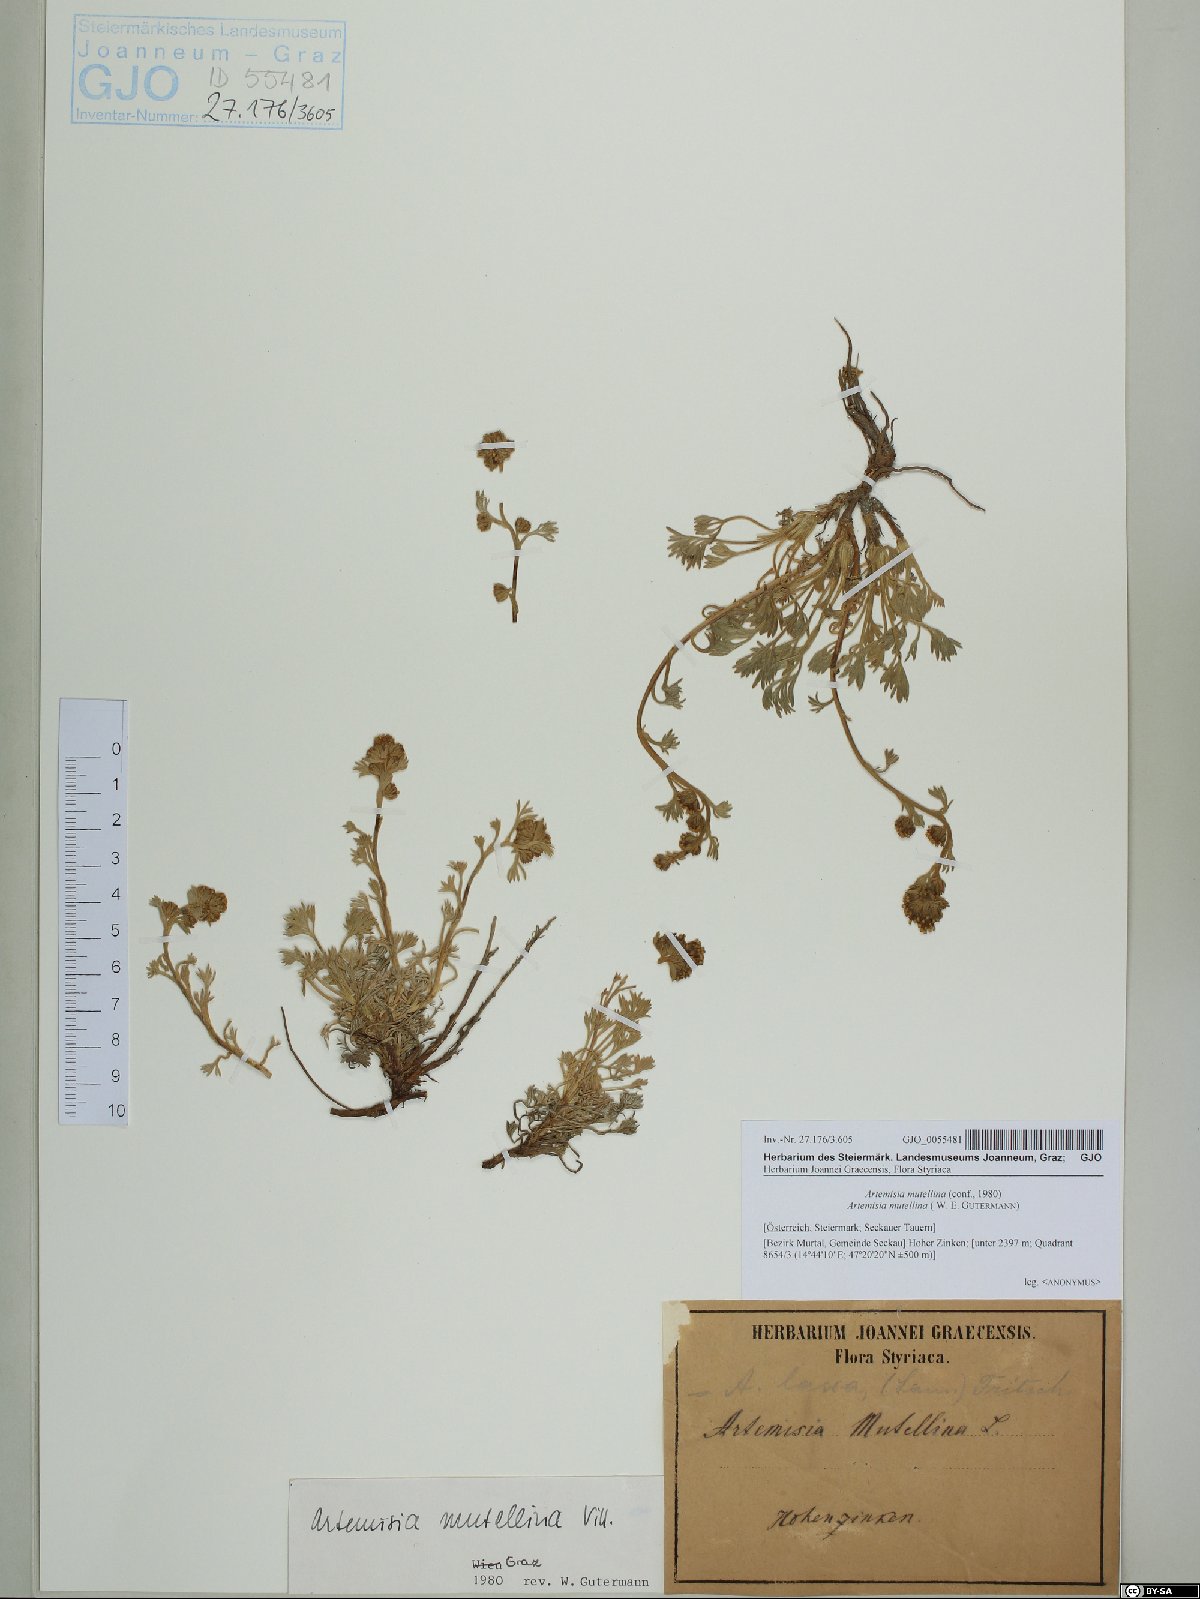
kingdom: Plantae
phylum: Tracheophyta
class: Magnoliopsida
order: Asterales
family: Asteraceae
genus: Artemisia
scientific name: Artemisia mutellina
